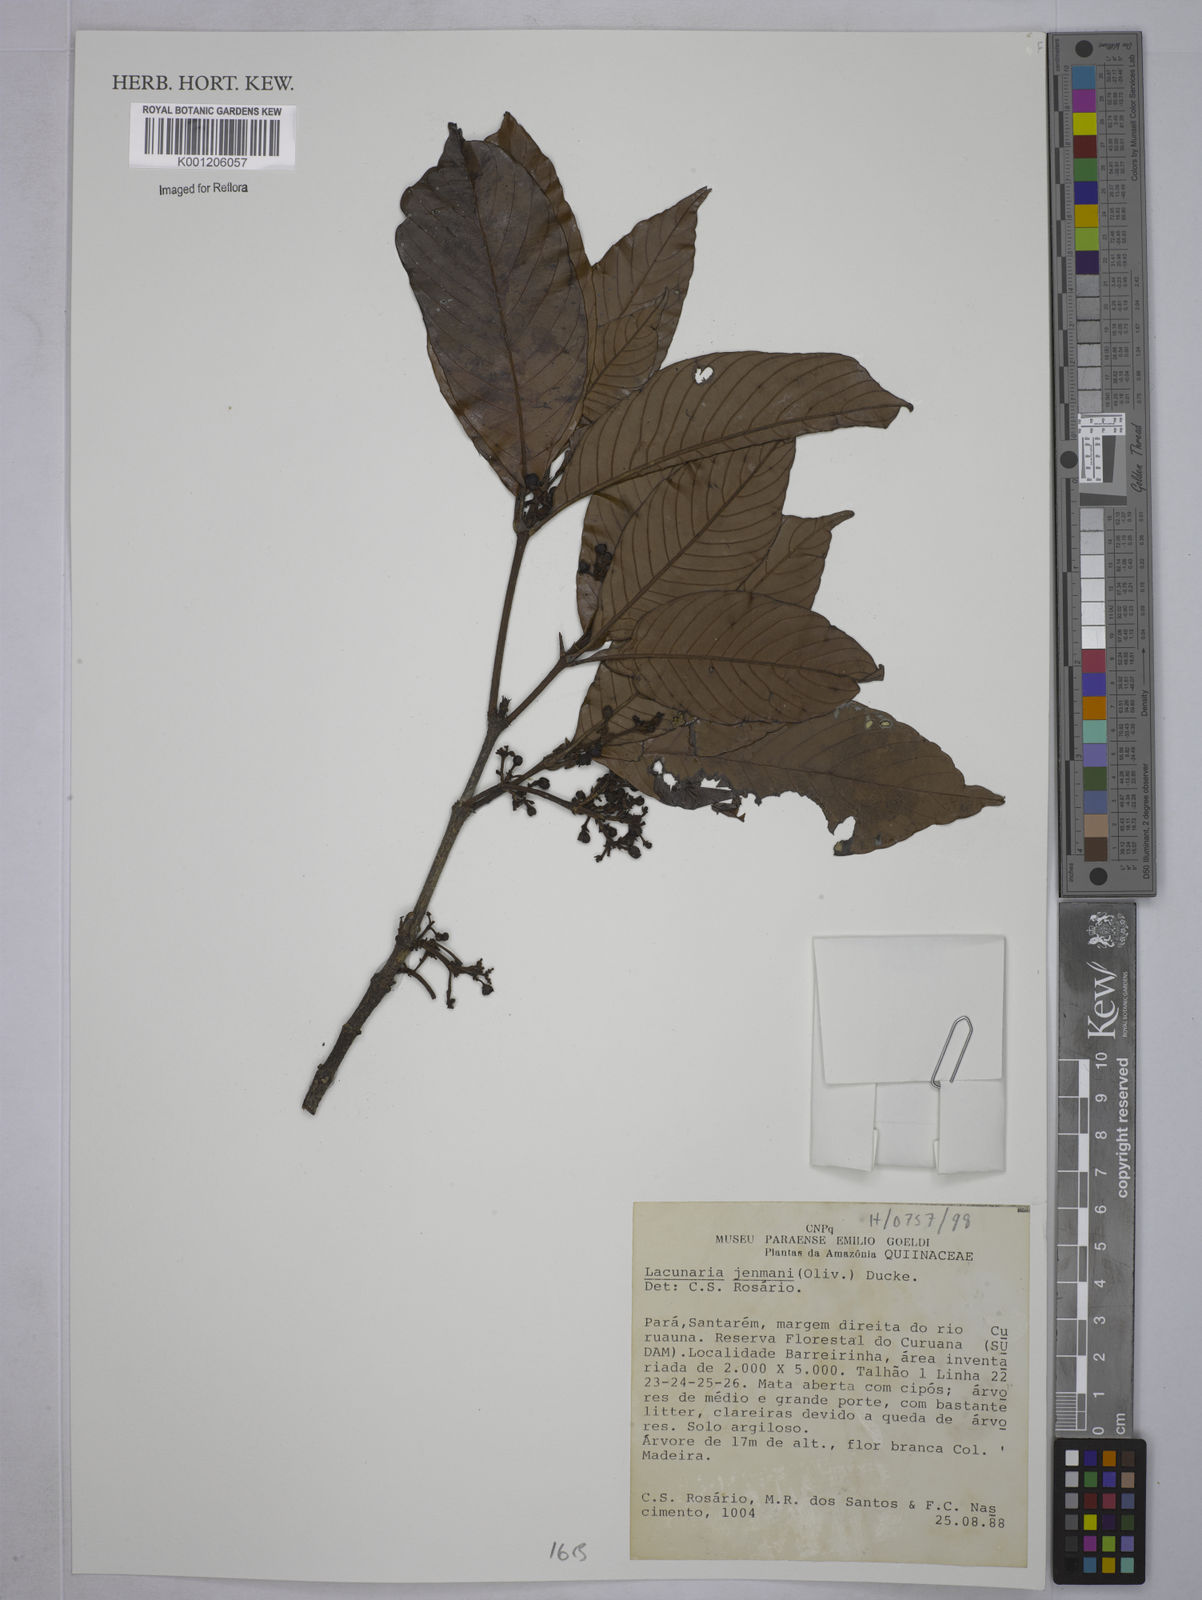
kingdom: Plantae
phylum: Tracheophyta
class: Magnoliopsida
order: Malpighiales
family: Quiinaceae
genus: Lacunaria
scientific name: Lacunaria jenmanii
